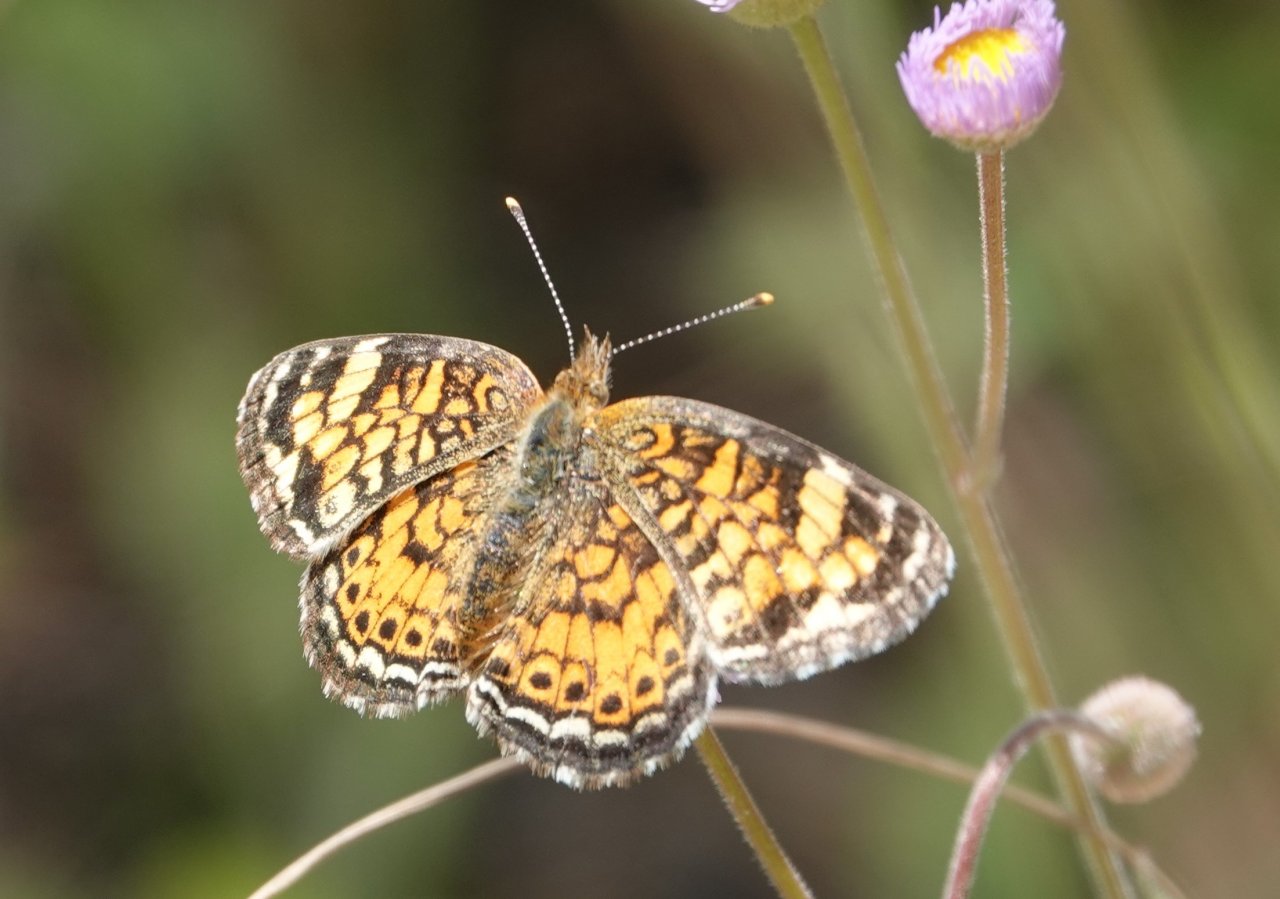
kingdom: Animalia
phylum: Arthropoda
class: Insecta
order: Lepidoptera
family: Nymphalidae
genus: Phyciodes
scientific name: Phyciodes tharos
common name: Pearl Crescent
